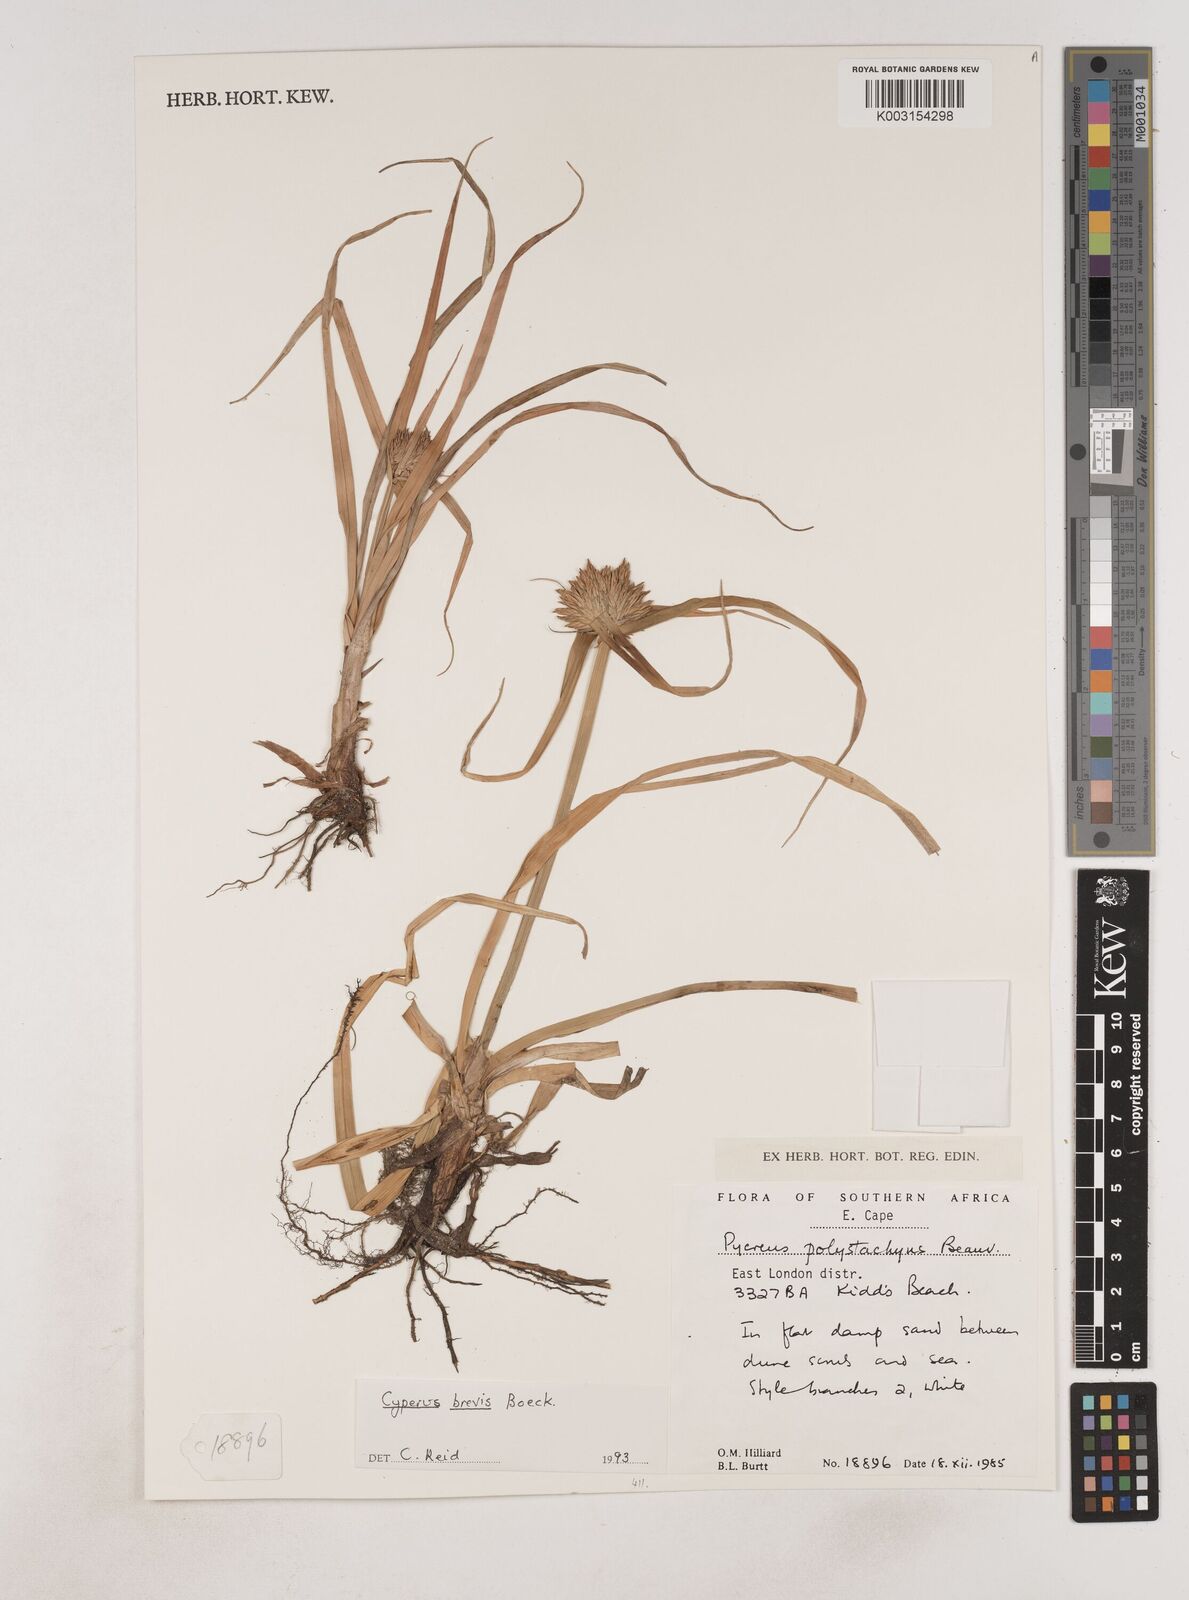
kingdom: Plantae
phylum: Tracheophyta
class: Liliopsida
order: Poales
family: Cyperaceae
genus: Cyperus
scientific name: Cyperus congestus
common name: Dense flat sedge
